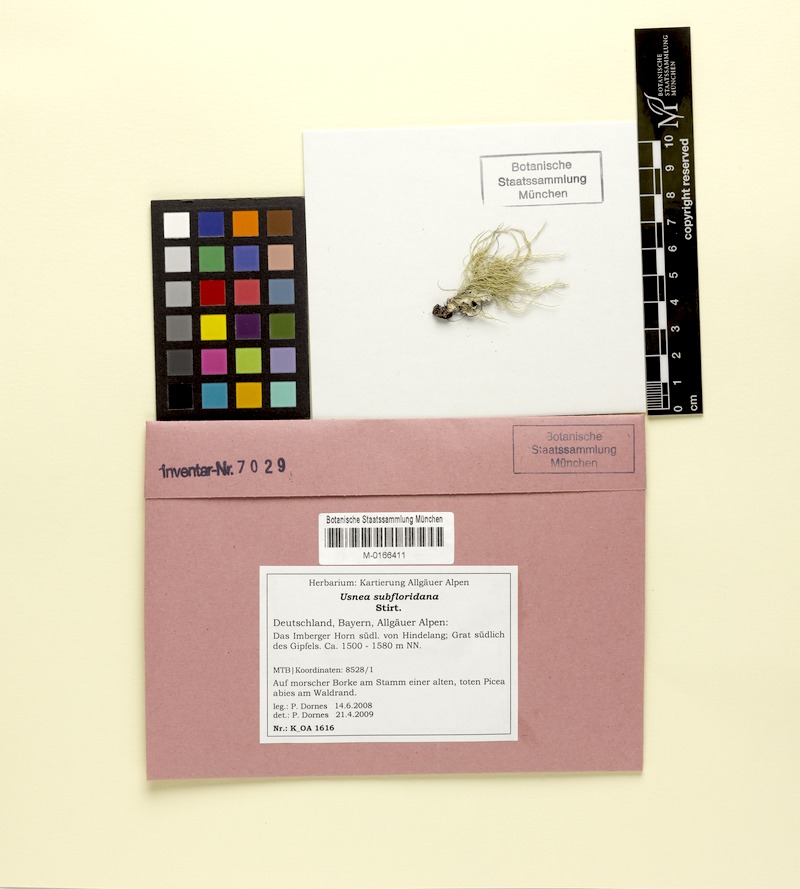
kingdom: Fungi
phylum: Ascomycota
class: Lecanoromycetes
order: Lecanorales
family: Parmeliaceae
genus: Usnea
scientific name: Usnea subfloridana
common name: Boreal beard lichen
